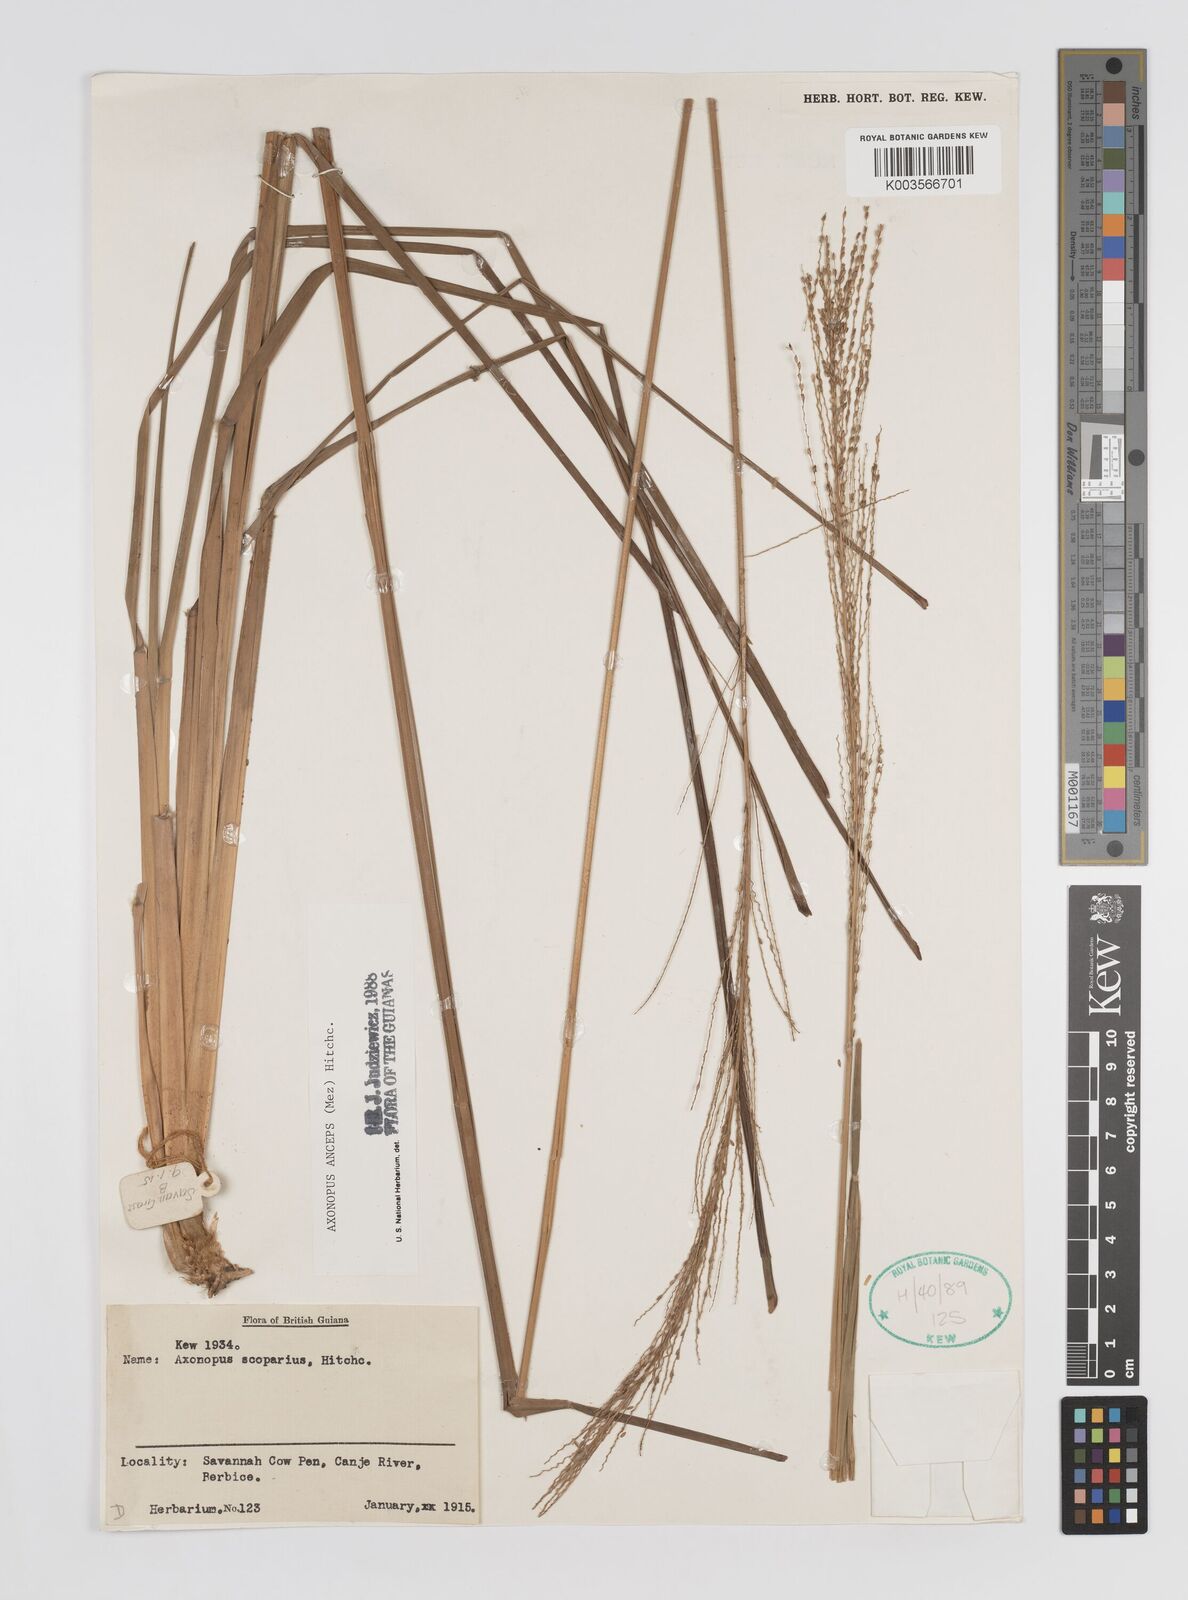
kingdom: Plantae
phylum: Tracheophyta
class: Liliopsida
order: Poales
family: Poaceae
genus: Axonopus
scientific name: Axonopus anceps
